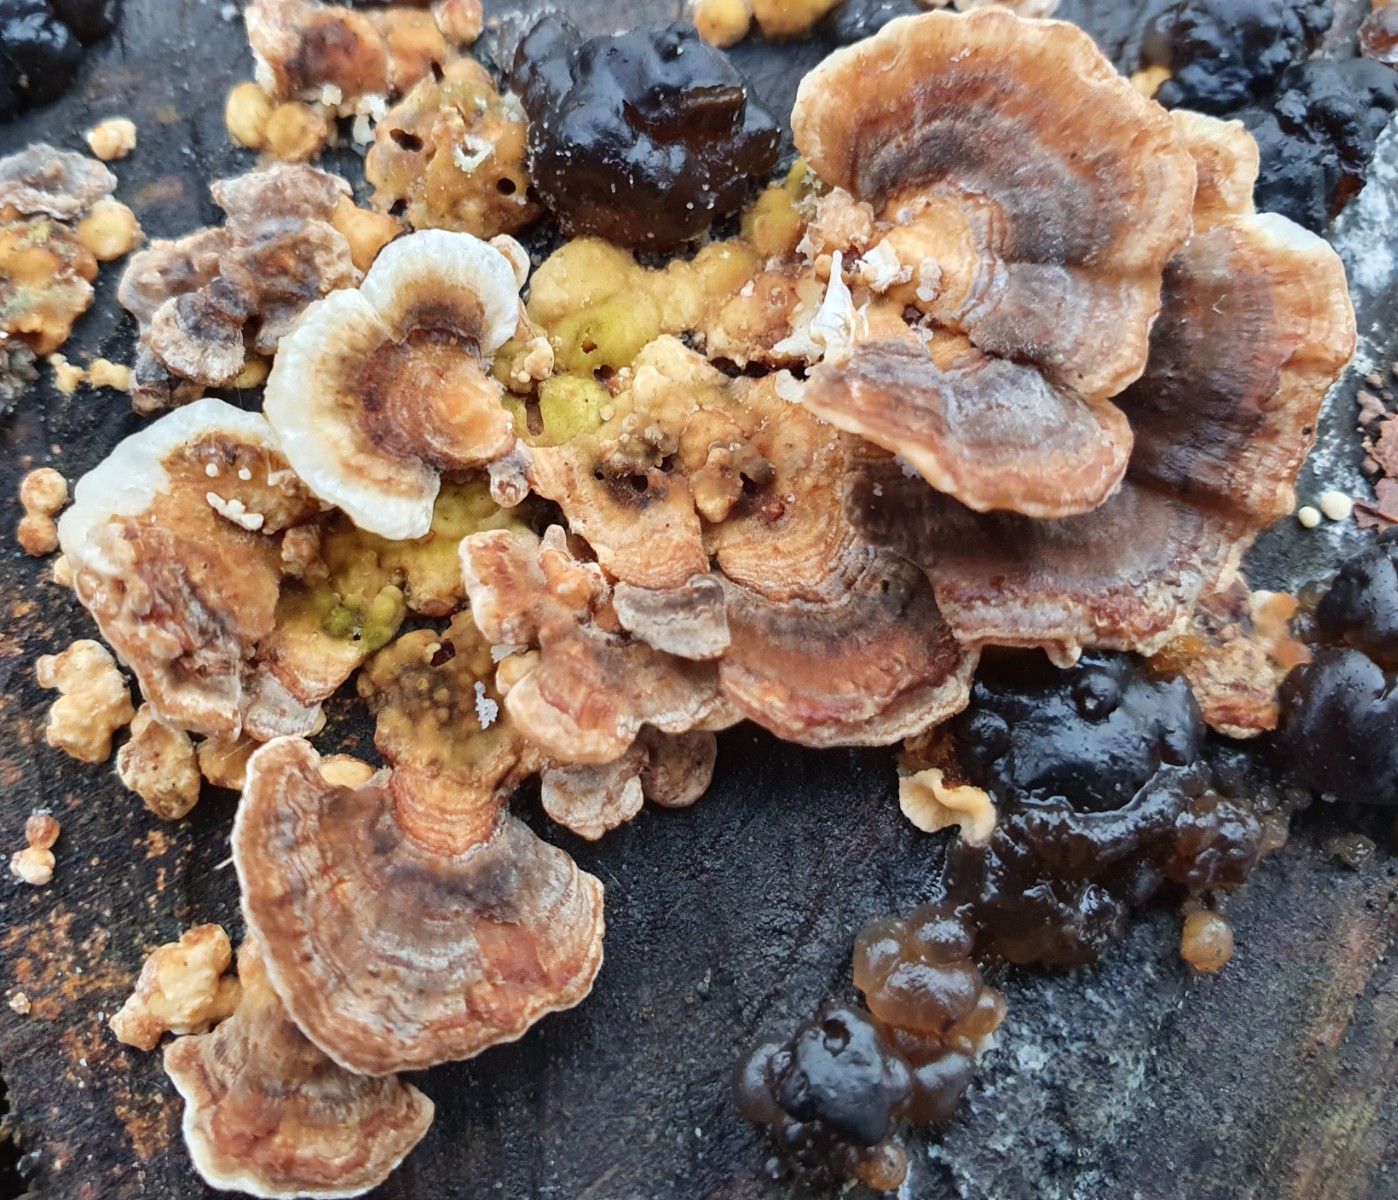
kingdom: Fungi
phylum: Basidiomycota
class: Agaricomycetes
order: Polyporales
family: Polyporaceae
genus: Trametes
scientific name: Trametes
